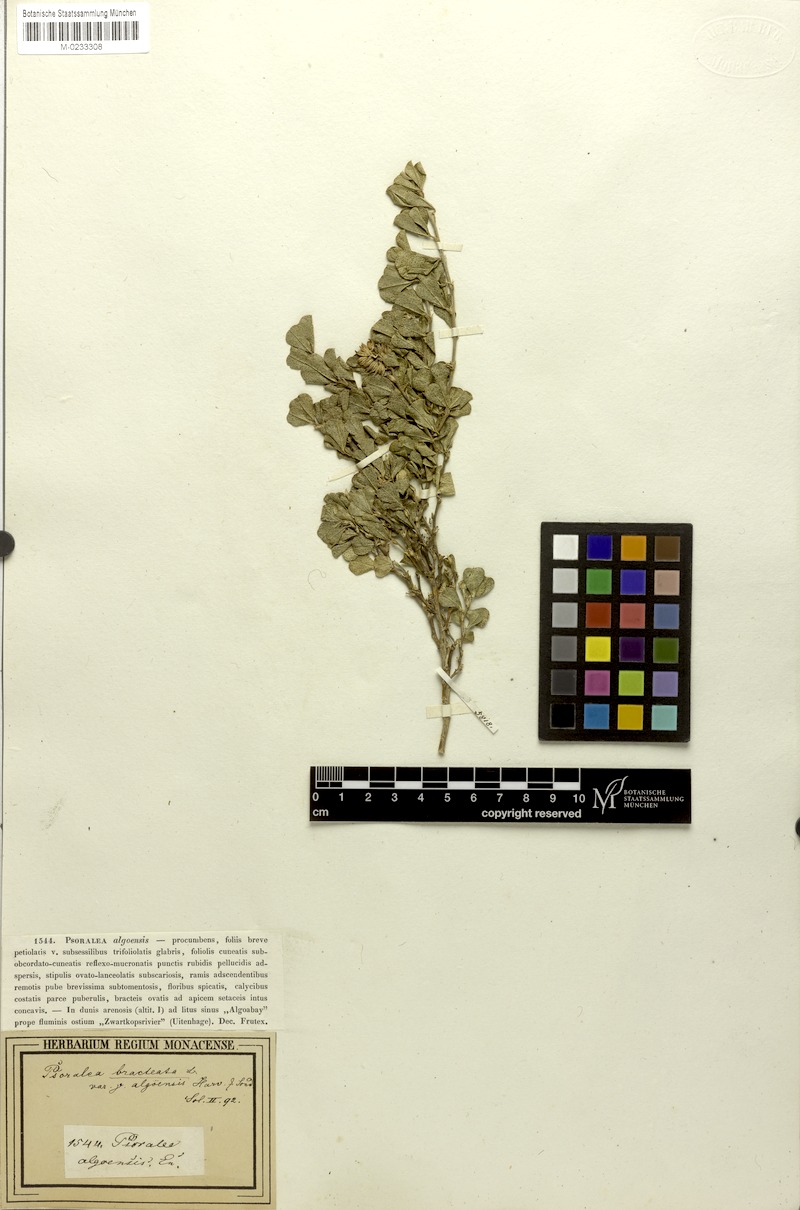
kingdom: Plantae
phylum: Tracheophyta
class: Magnoliopsida
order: Fabales
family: Fabaceae
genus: Psoralea
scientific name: Psoralea bracteolata
